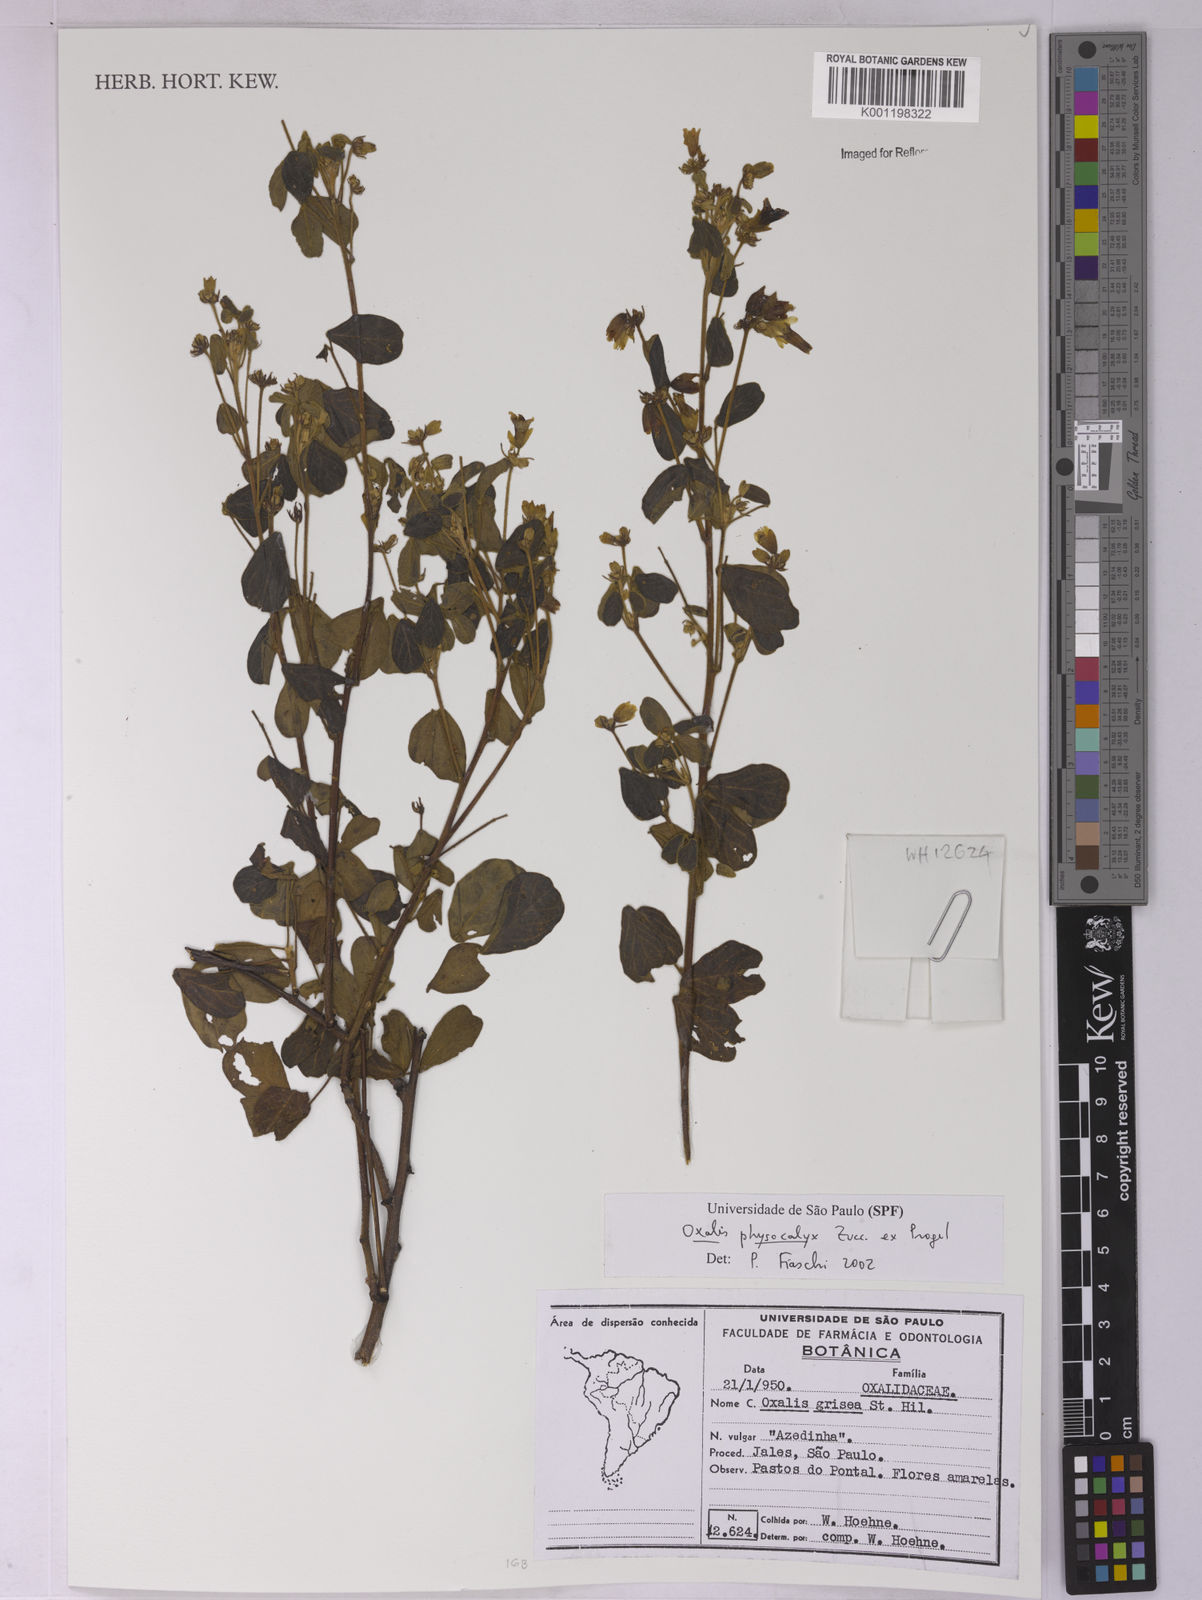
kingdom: Plantae
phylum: Tracheophyta
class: Magnoliopsida
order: Oxalidales
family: Oxalidaceae
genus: Oxalis
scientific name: Oxalis physocalyx
